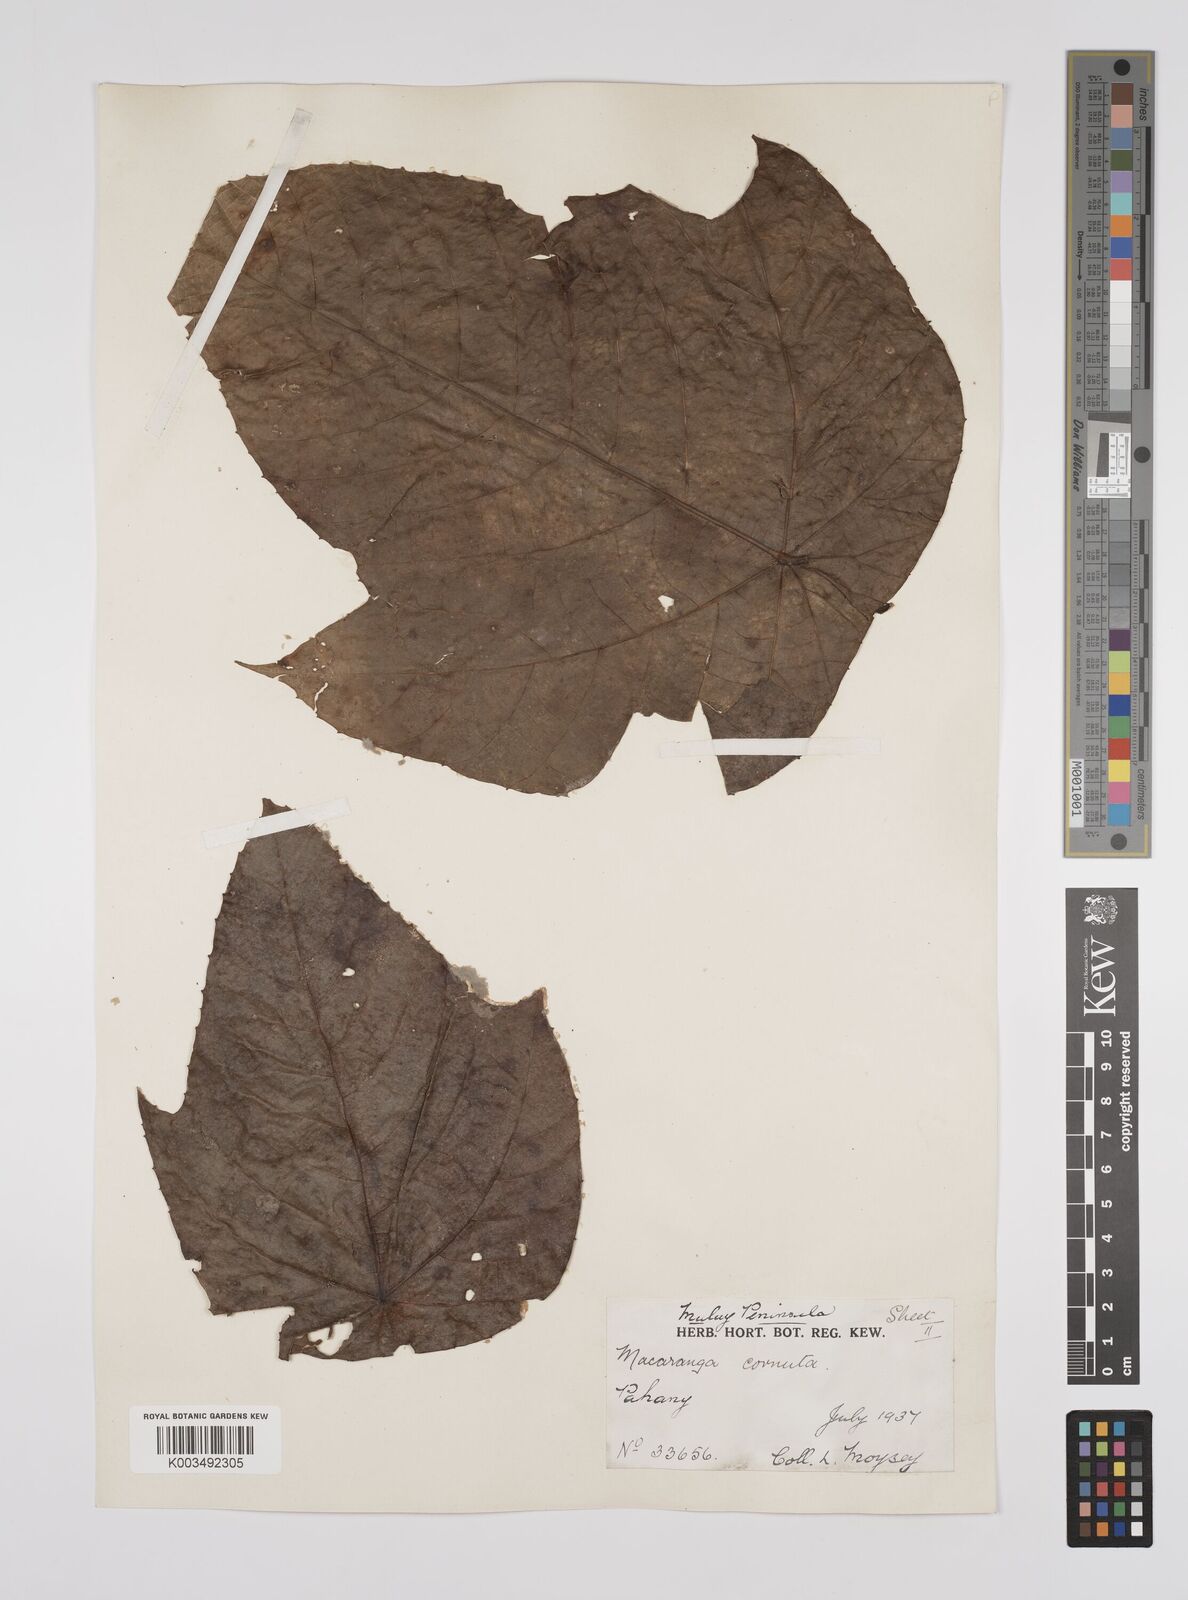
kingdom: Plantae
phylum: Tracheophyta
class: Magnoliopsida
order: Malpighiales
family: Euphorbiaceae
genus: Macaranga
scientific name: Macaranga hullettii
